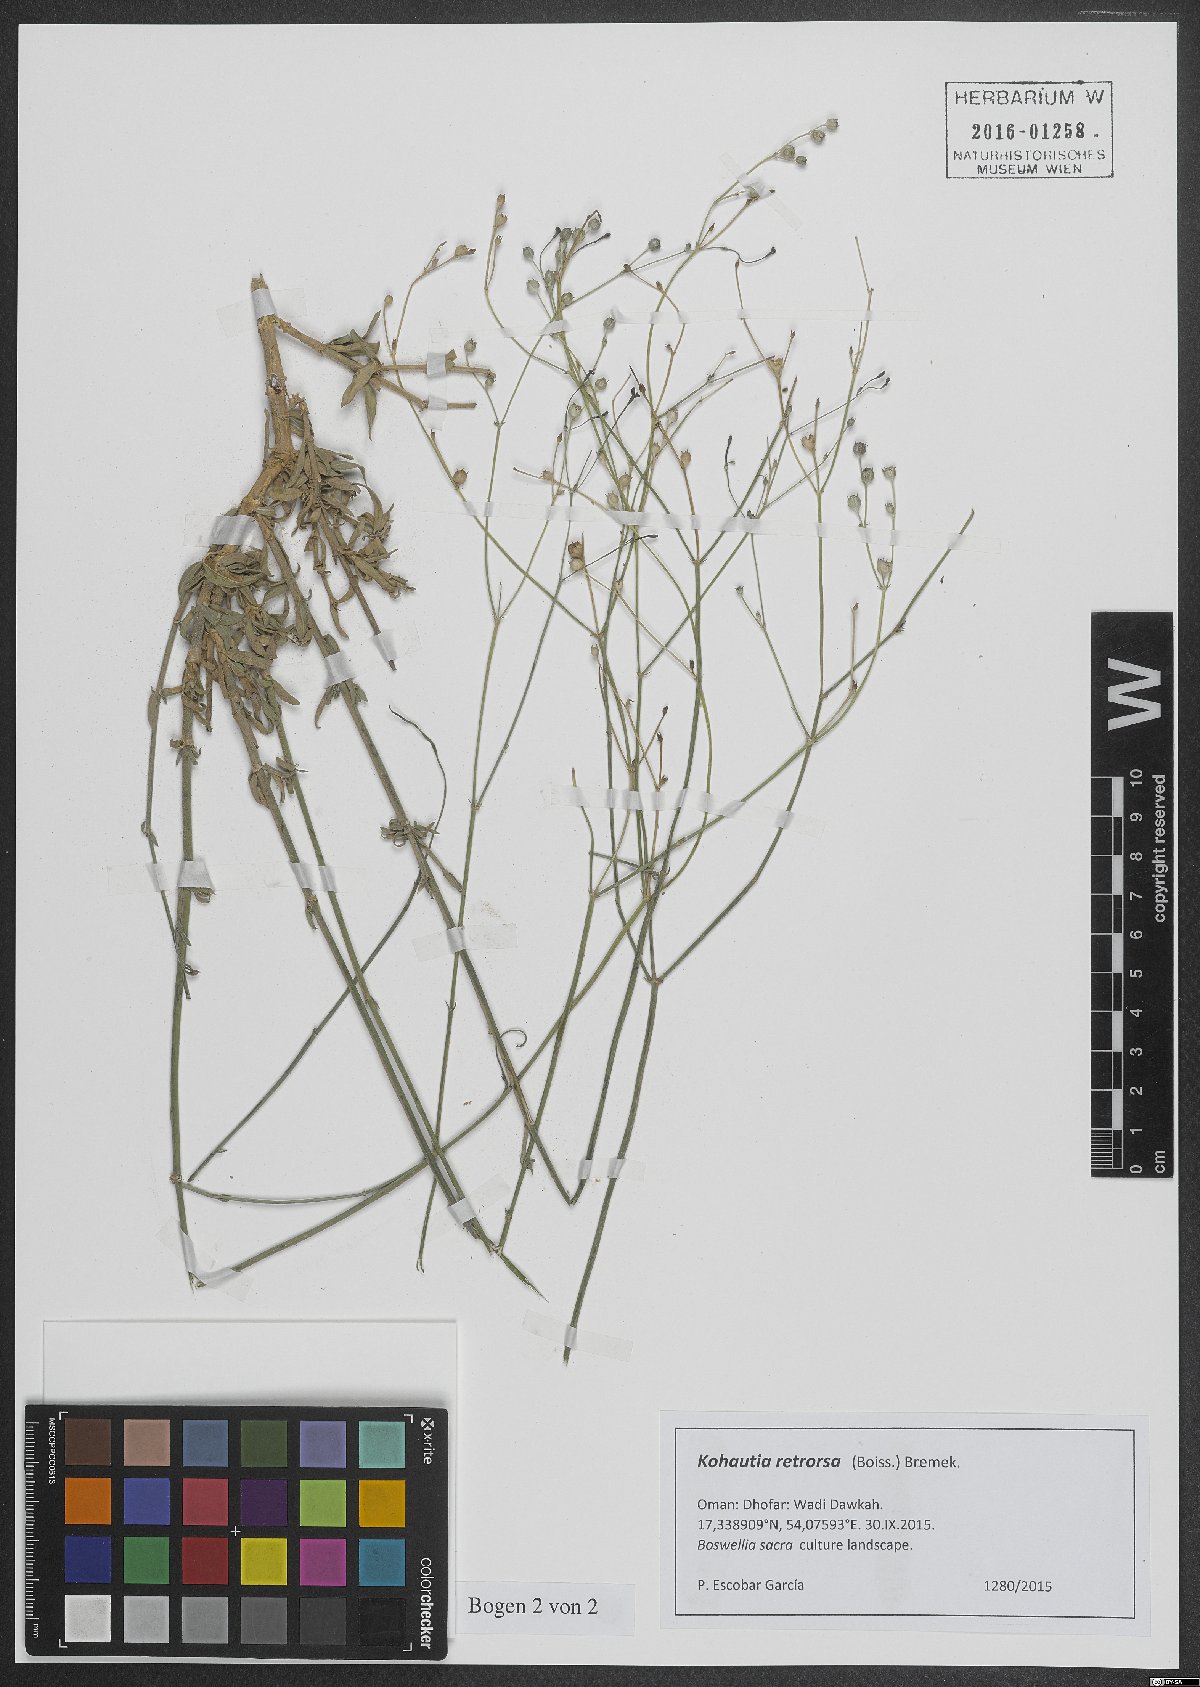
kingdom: Plantae
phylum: Tracheophyta
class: Magnoliopsida
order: Gentianales
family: Rubiaceae
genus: Kohautia
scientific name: Kohautia retrorsa
